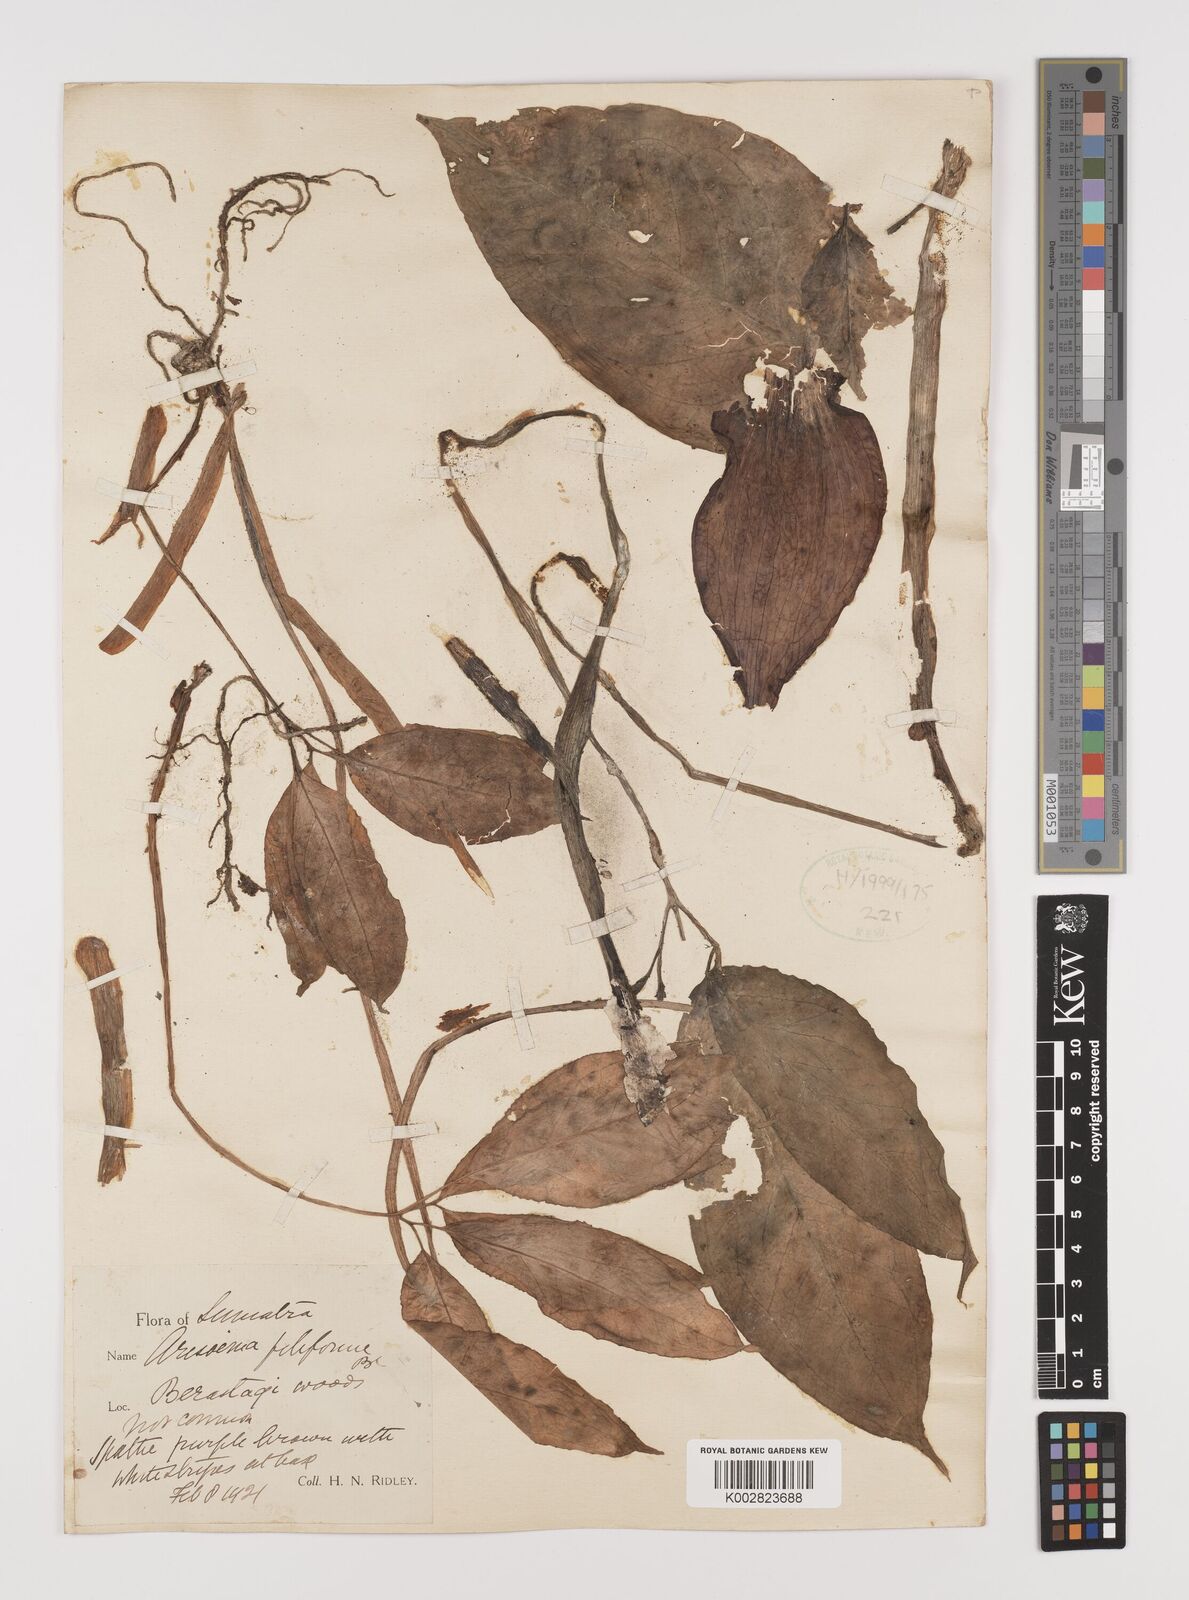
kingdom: Plantae
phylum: Tracheophyta
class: Liliopsida
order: Alismatales
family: Araceae
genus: Arisaema
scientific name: Arisaema filiforme
